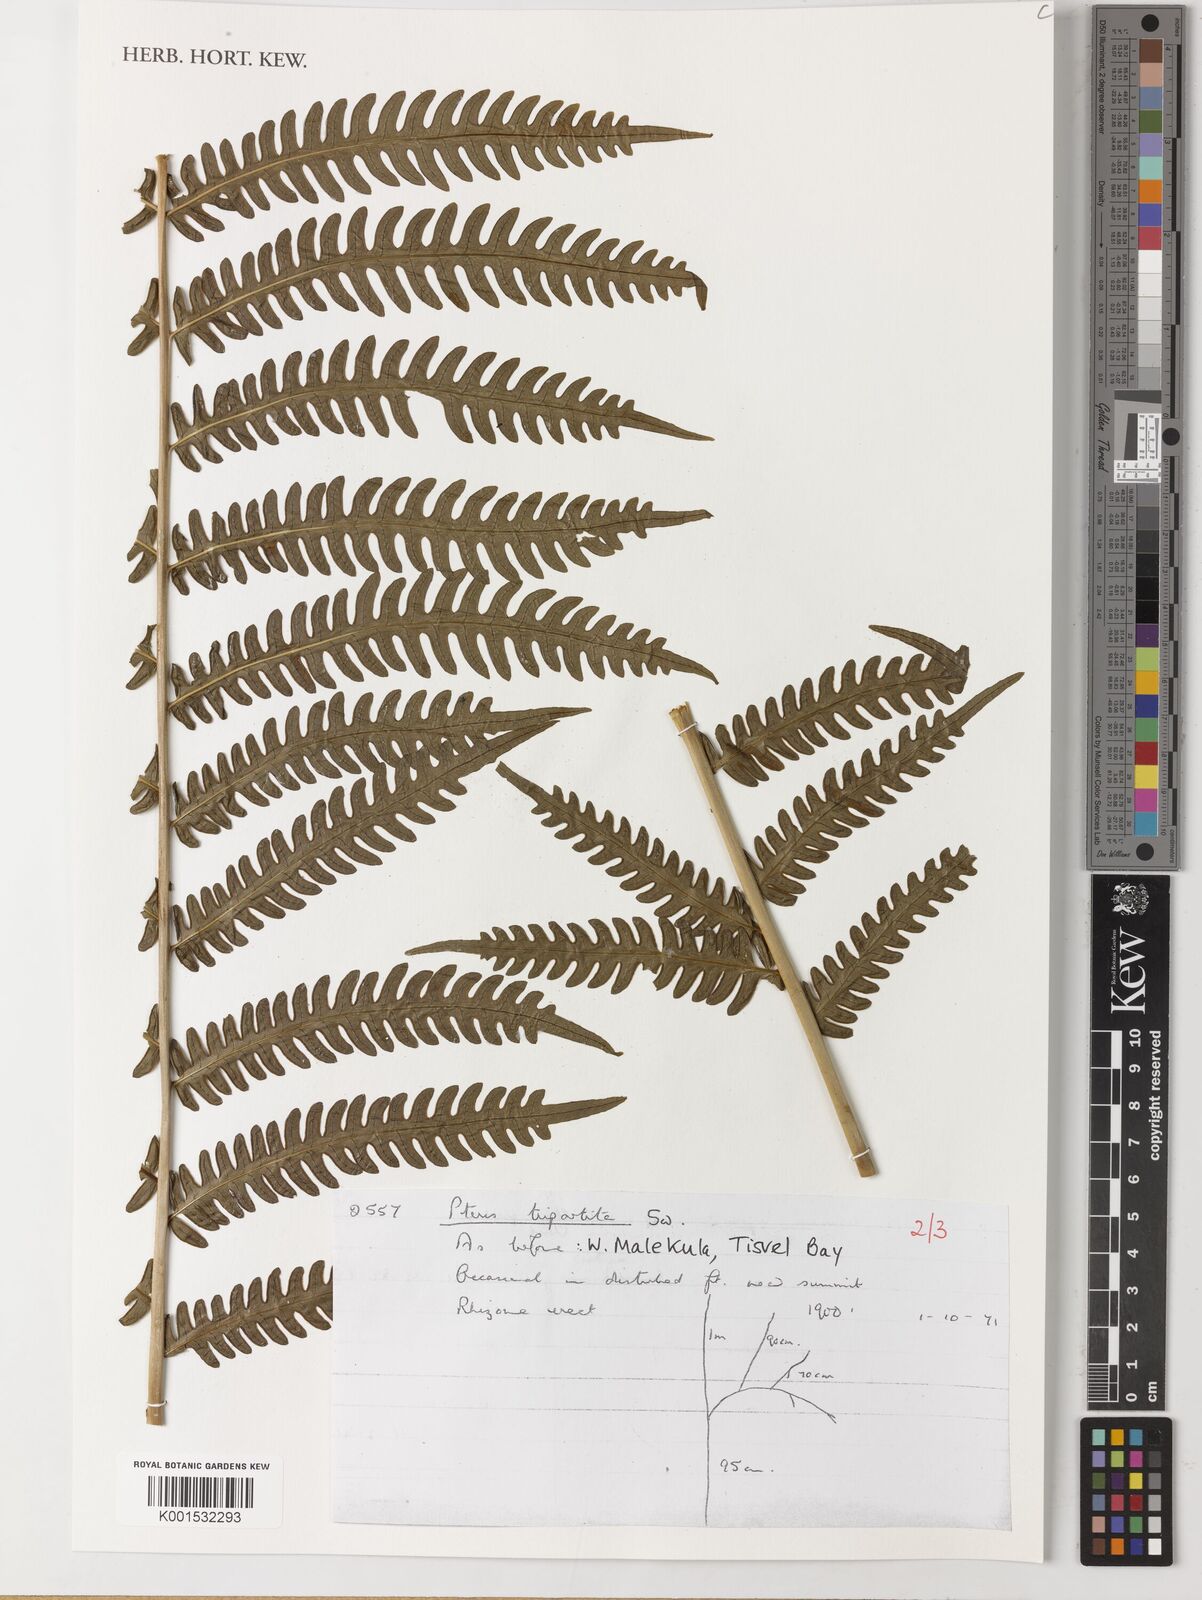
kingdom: Plantae
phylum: Tracheophyta
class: Polypodiopsida
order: Polypodiales
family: Pteridaceae
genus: Pteris
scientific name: Pteris tripartita
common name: Giant brake
